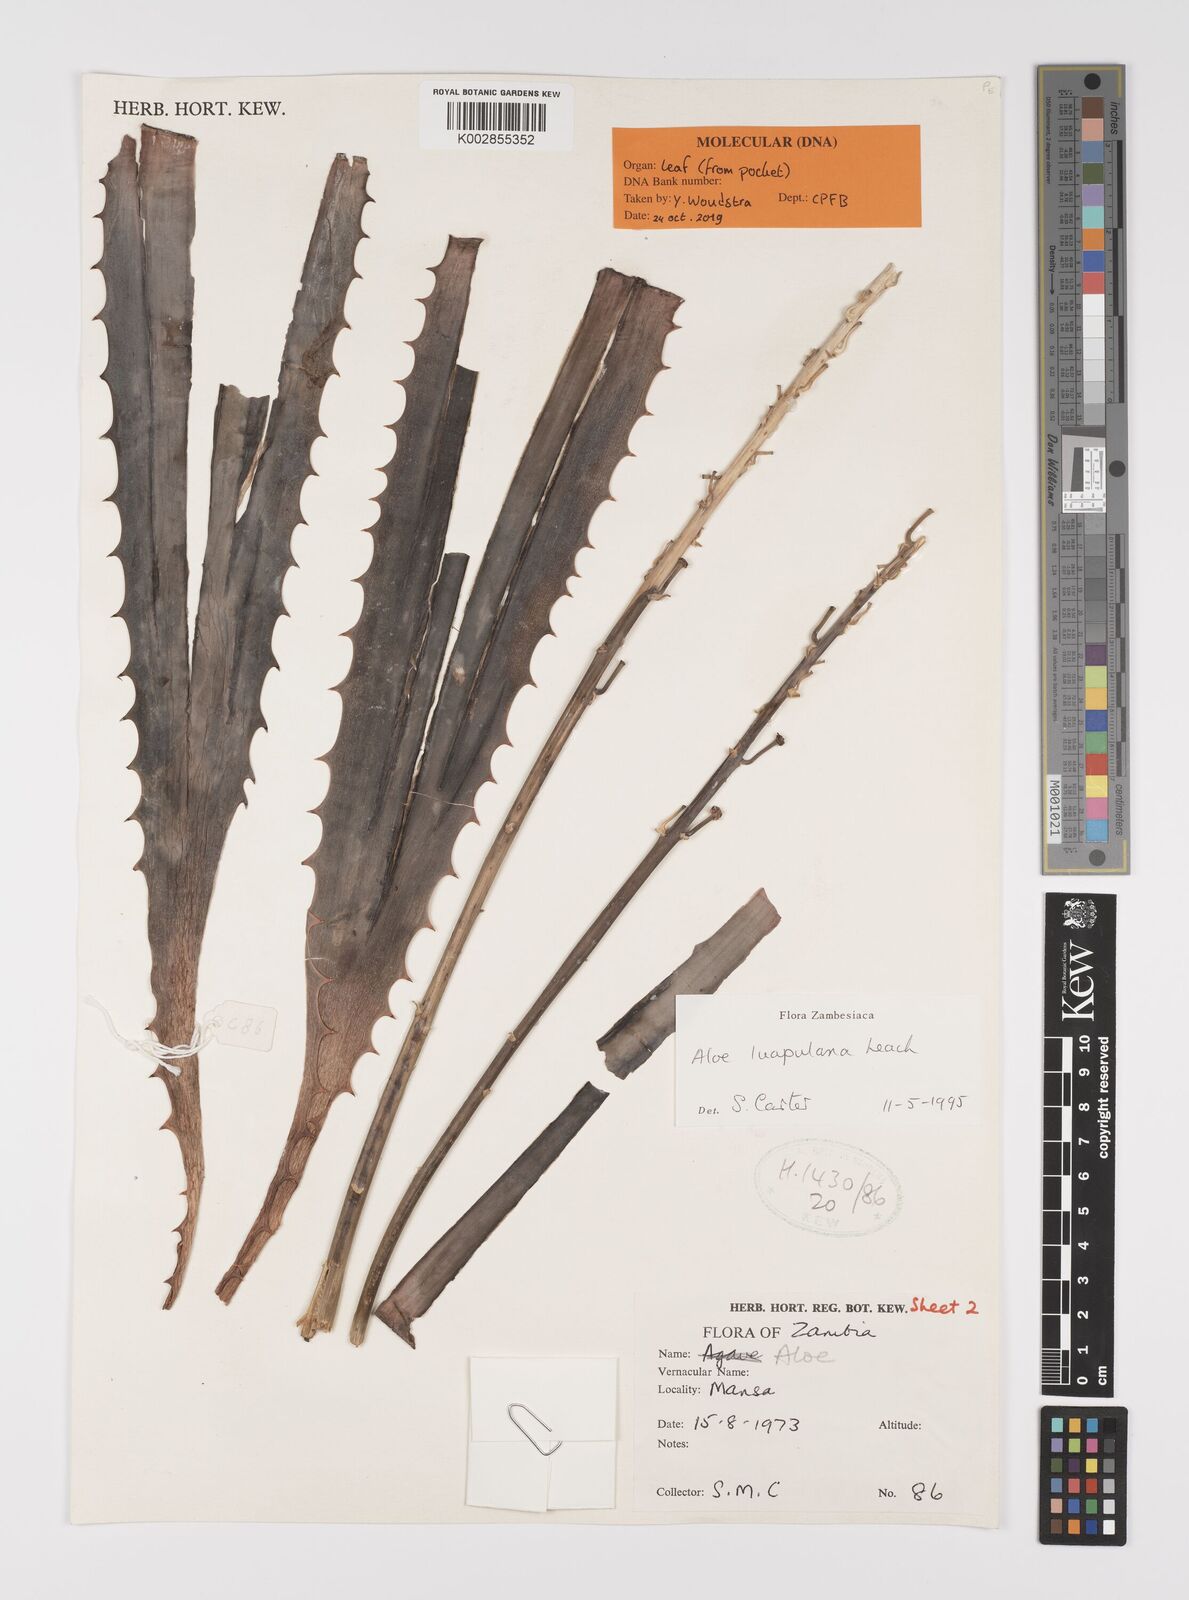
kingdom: Plantae
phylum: Tracheophyta
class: Liliopsida
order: Asparagales
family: Asphodelaceae
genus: Aloe
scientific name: Aloe luapulana
